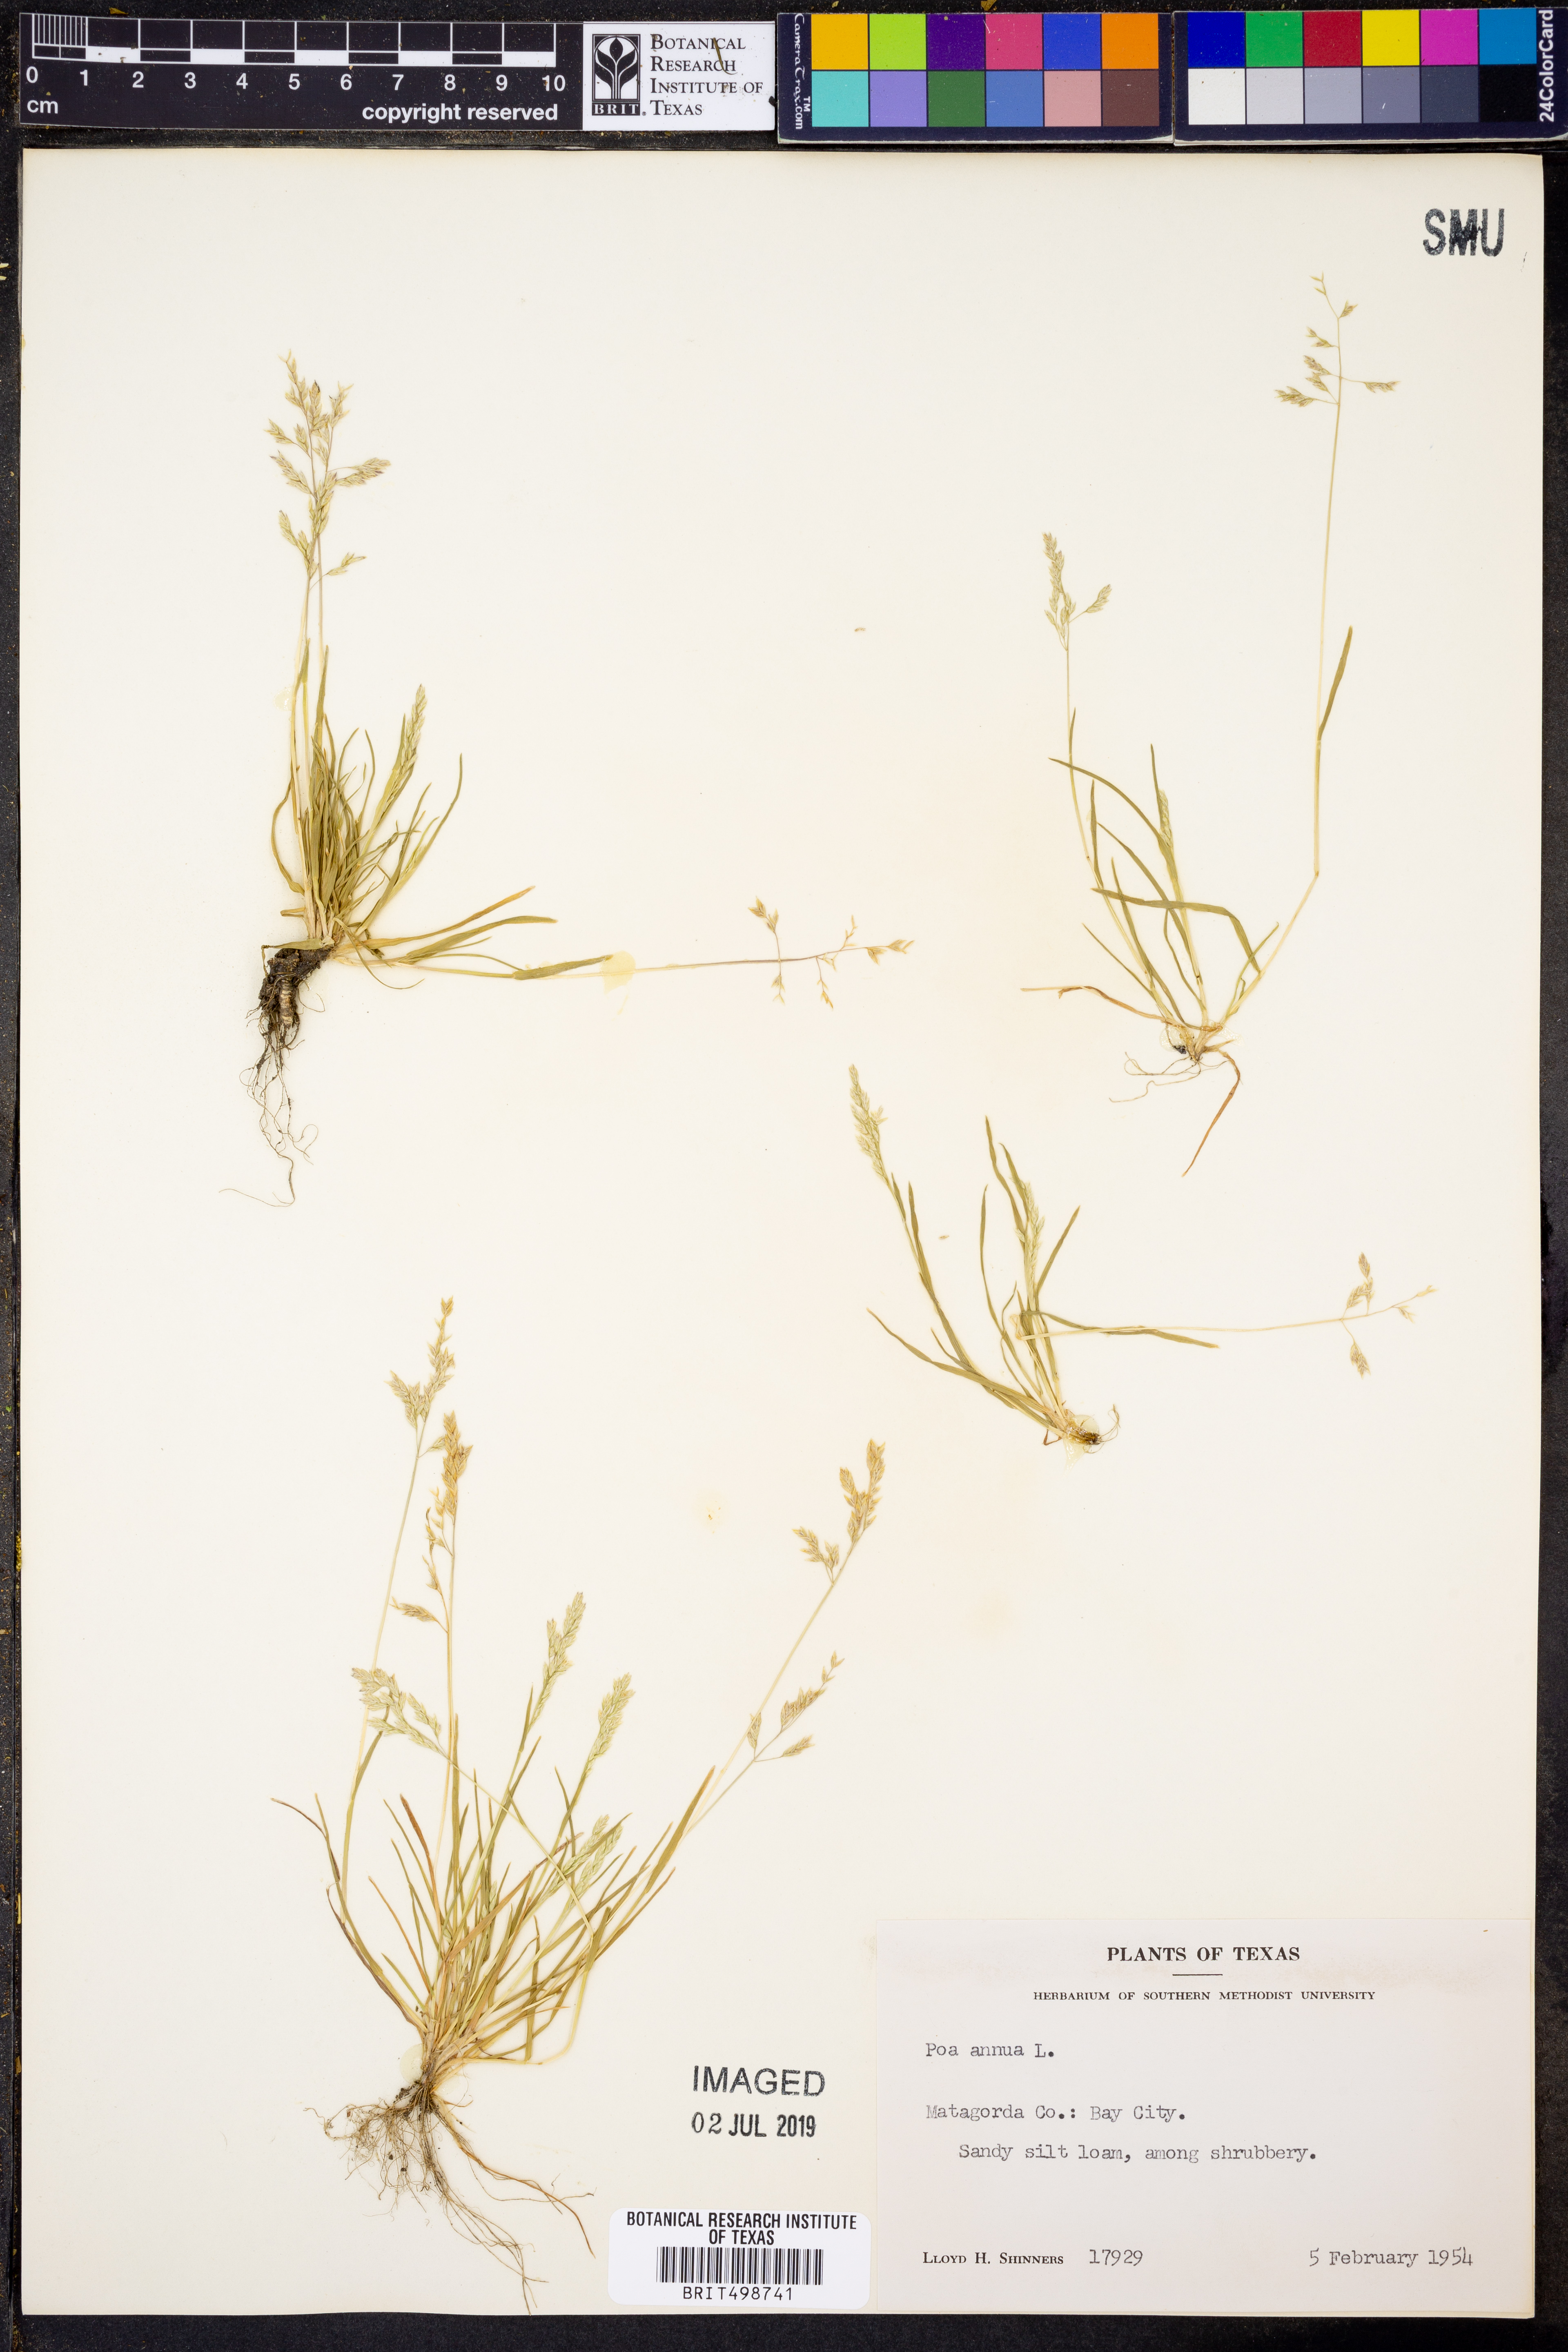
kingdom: Plantae
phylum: Tracheophyta
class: Liliopsida
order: Poales
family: Poaceae
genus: Poa
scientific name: Poa annua
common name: Annual bluegrass
